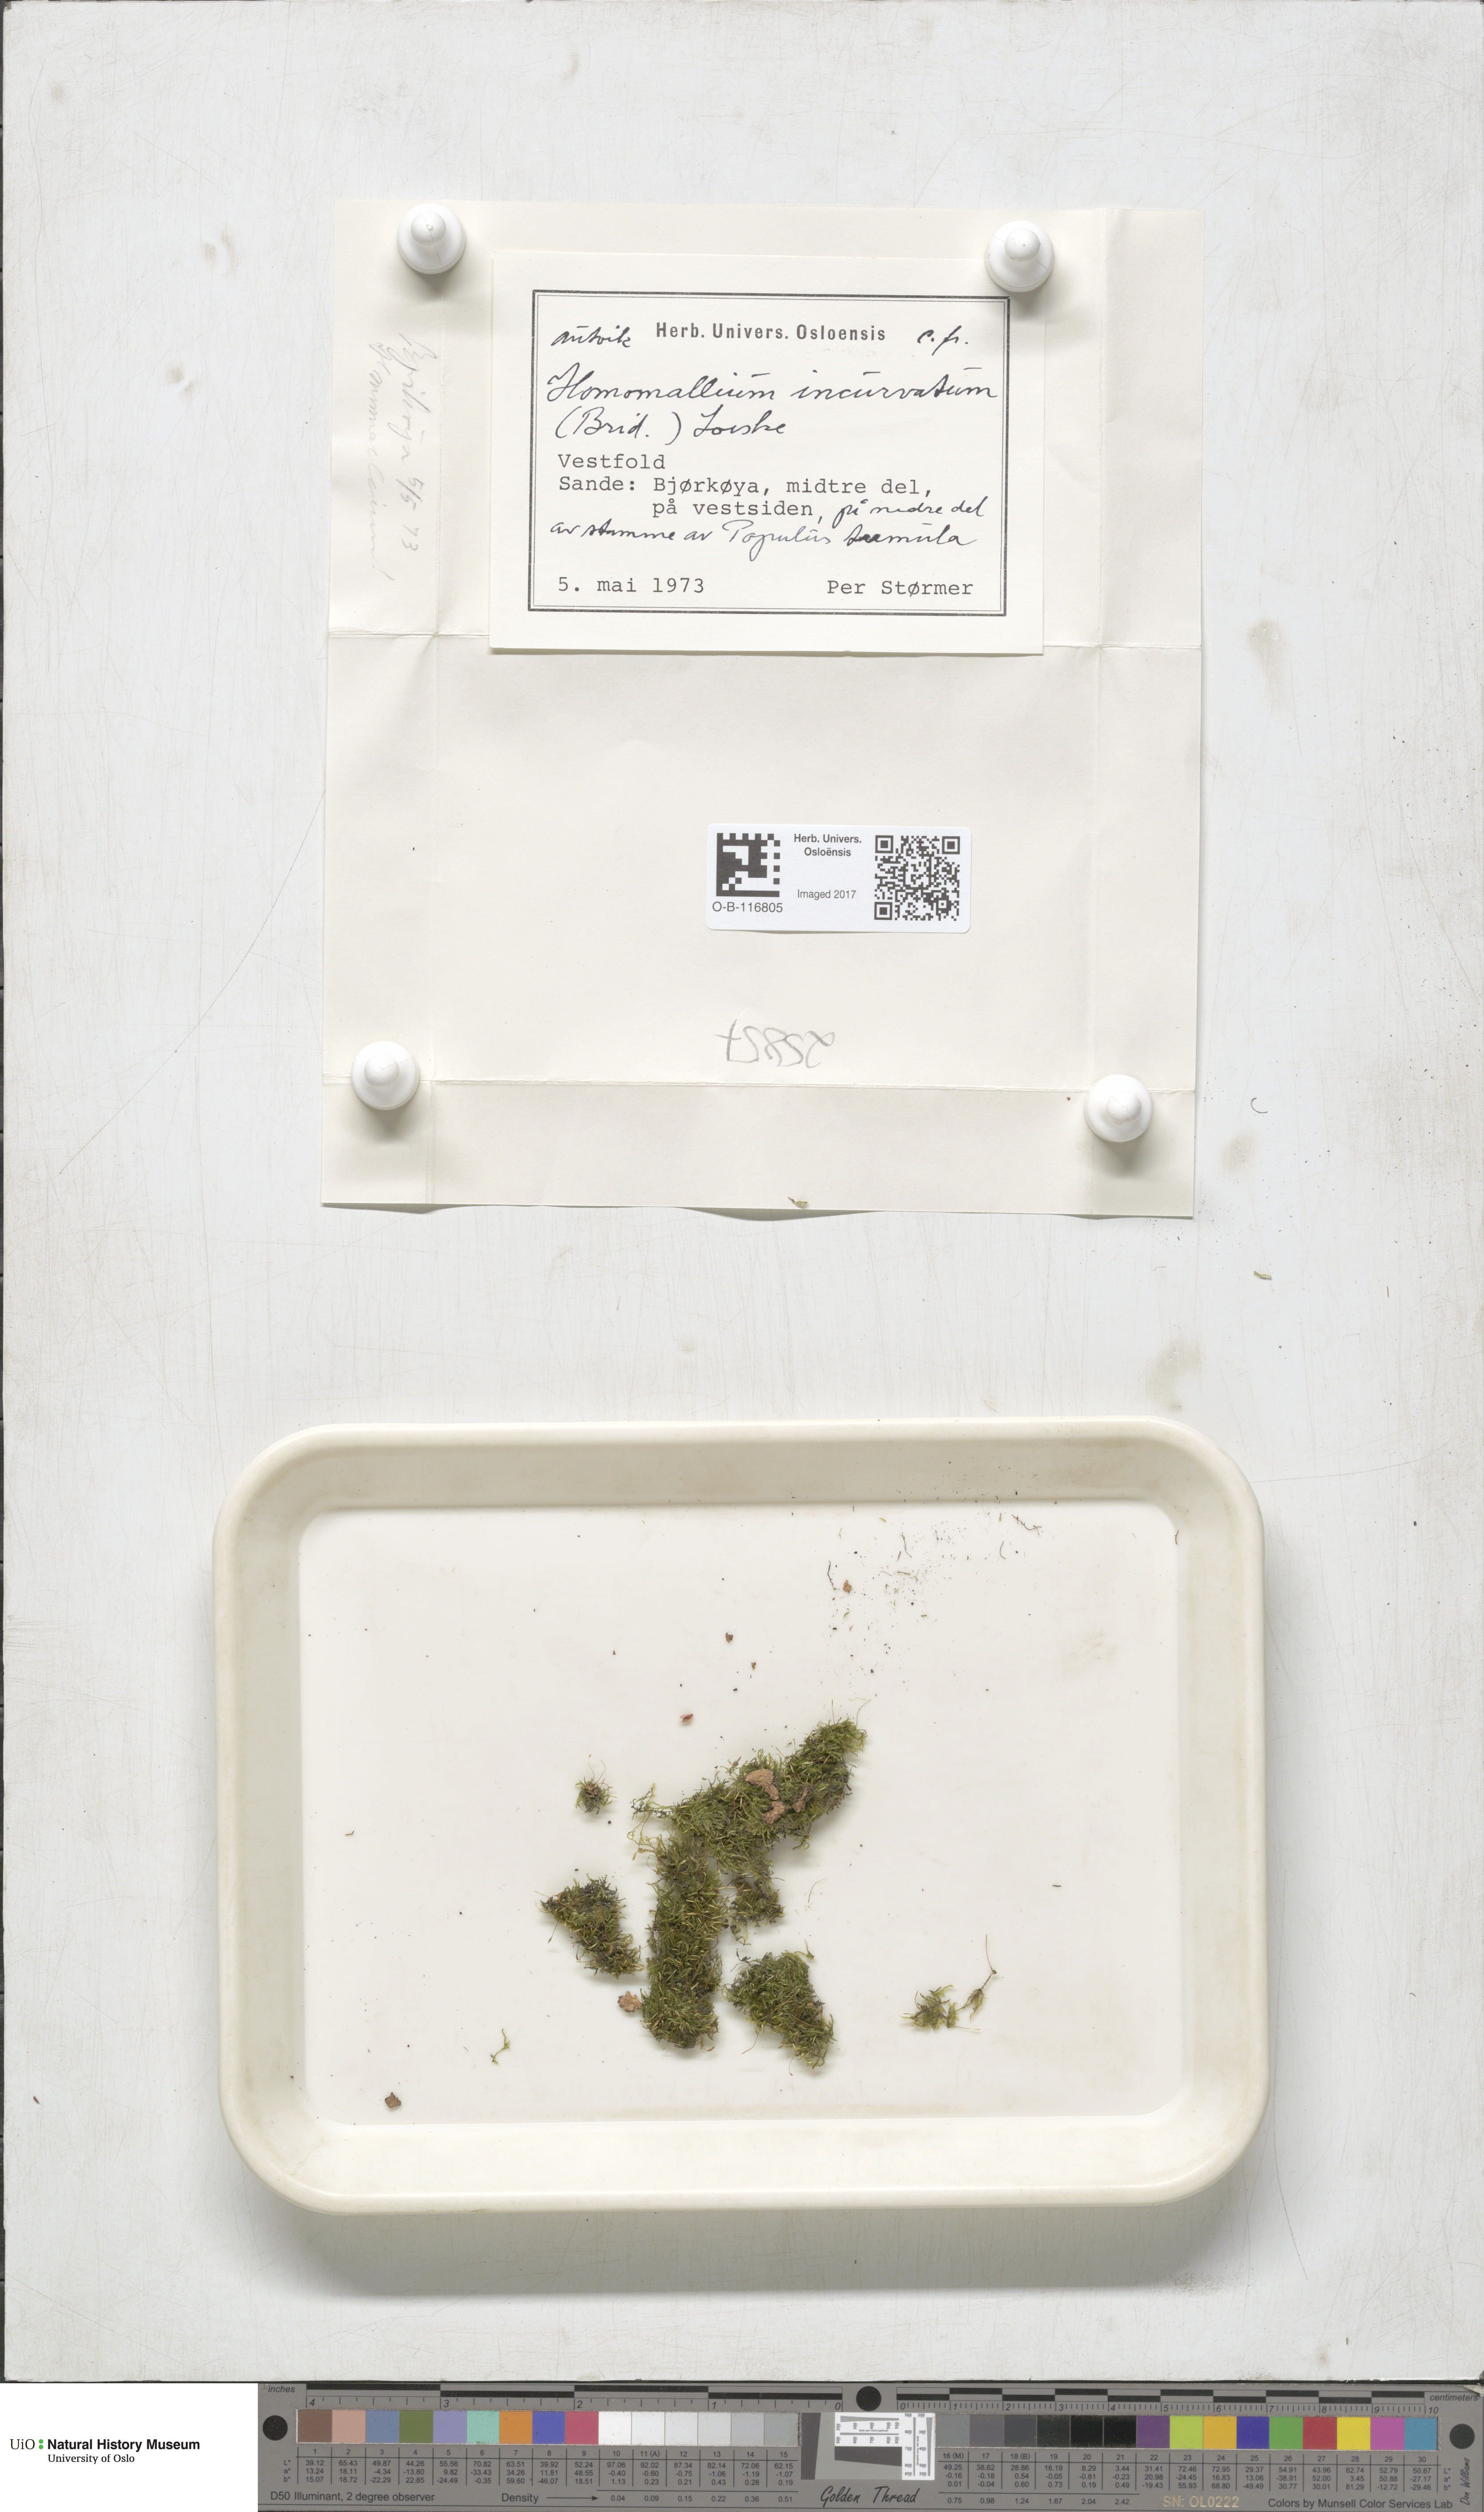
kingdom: Plantae
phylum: Bryophyta
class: Bryopsida
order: Hypnales
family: Pylaisiaceae
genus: Homomallium
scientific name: Homomallium incurvatum
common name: Incurved feather-moss
